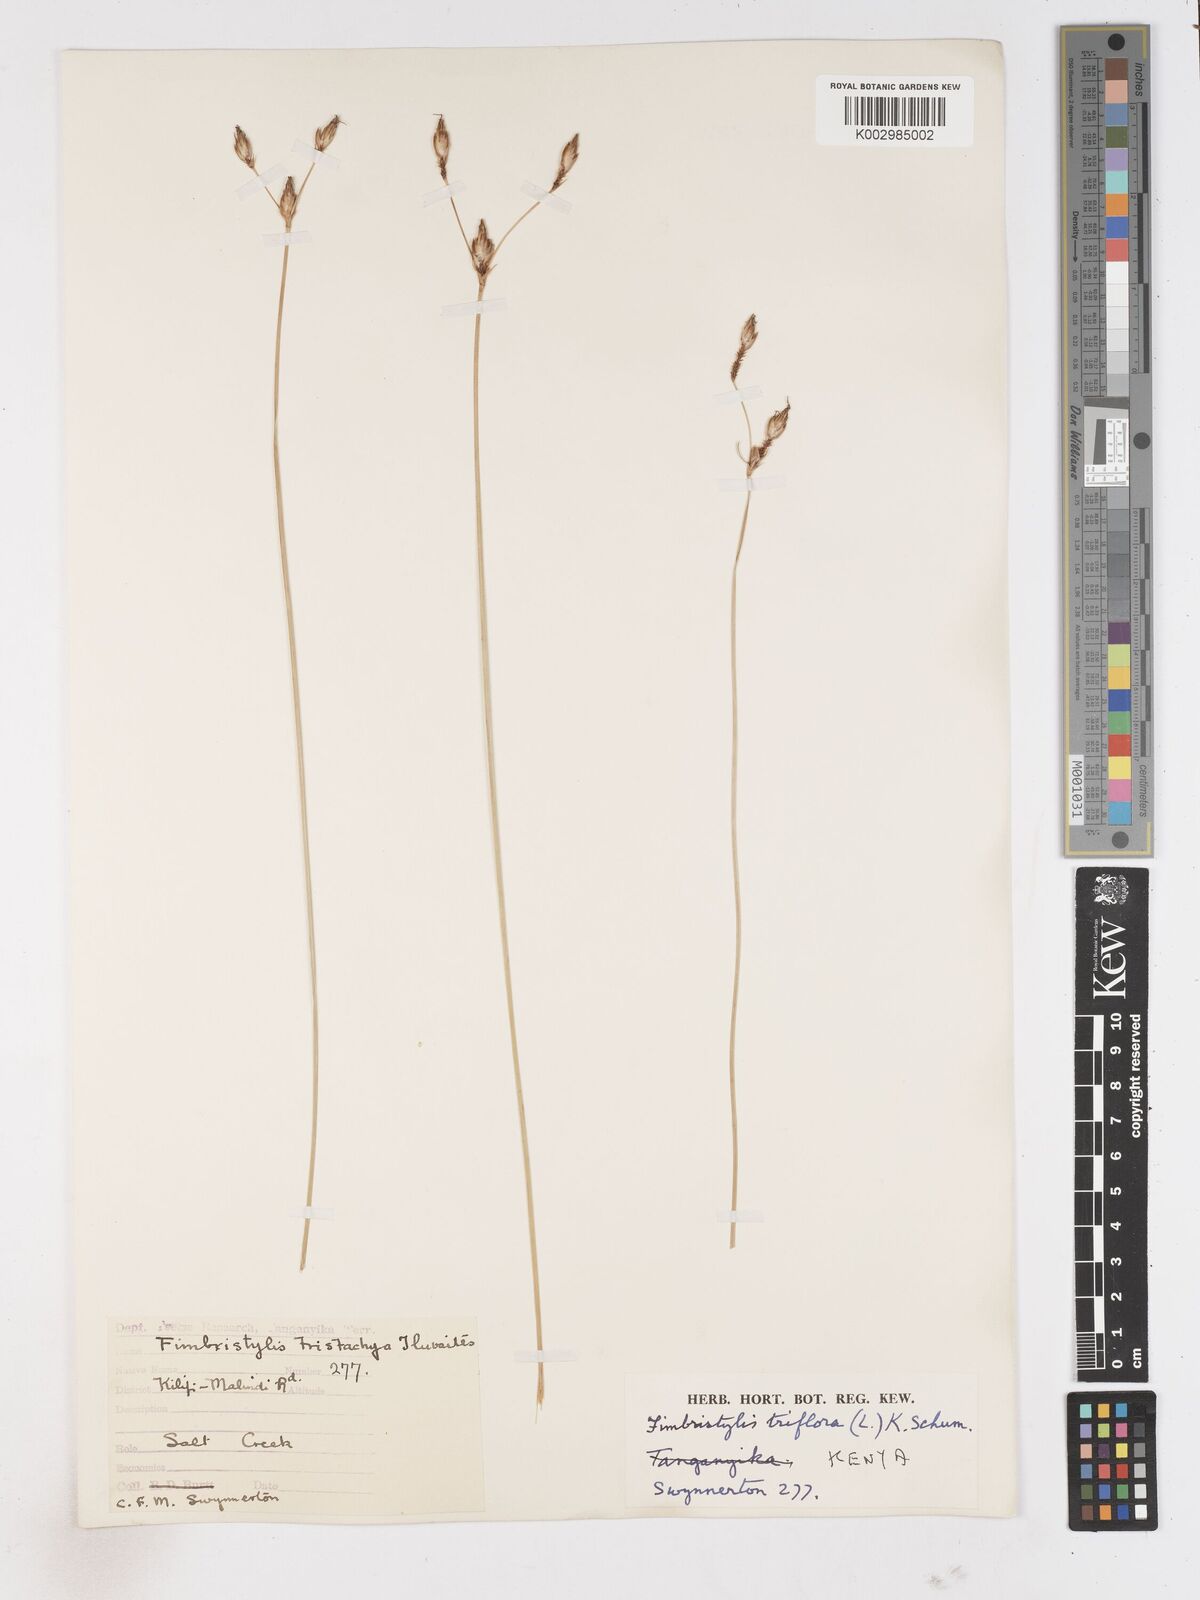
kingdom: Plantae
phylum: Tracheophyta
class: Liliopsida
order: Poales
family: Cyperaceae
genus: Abildgaardia
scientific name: Abildgaardia triflora
